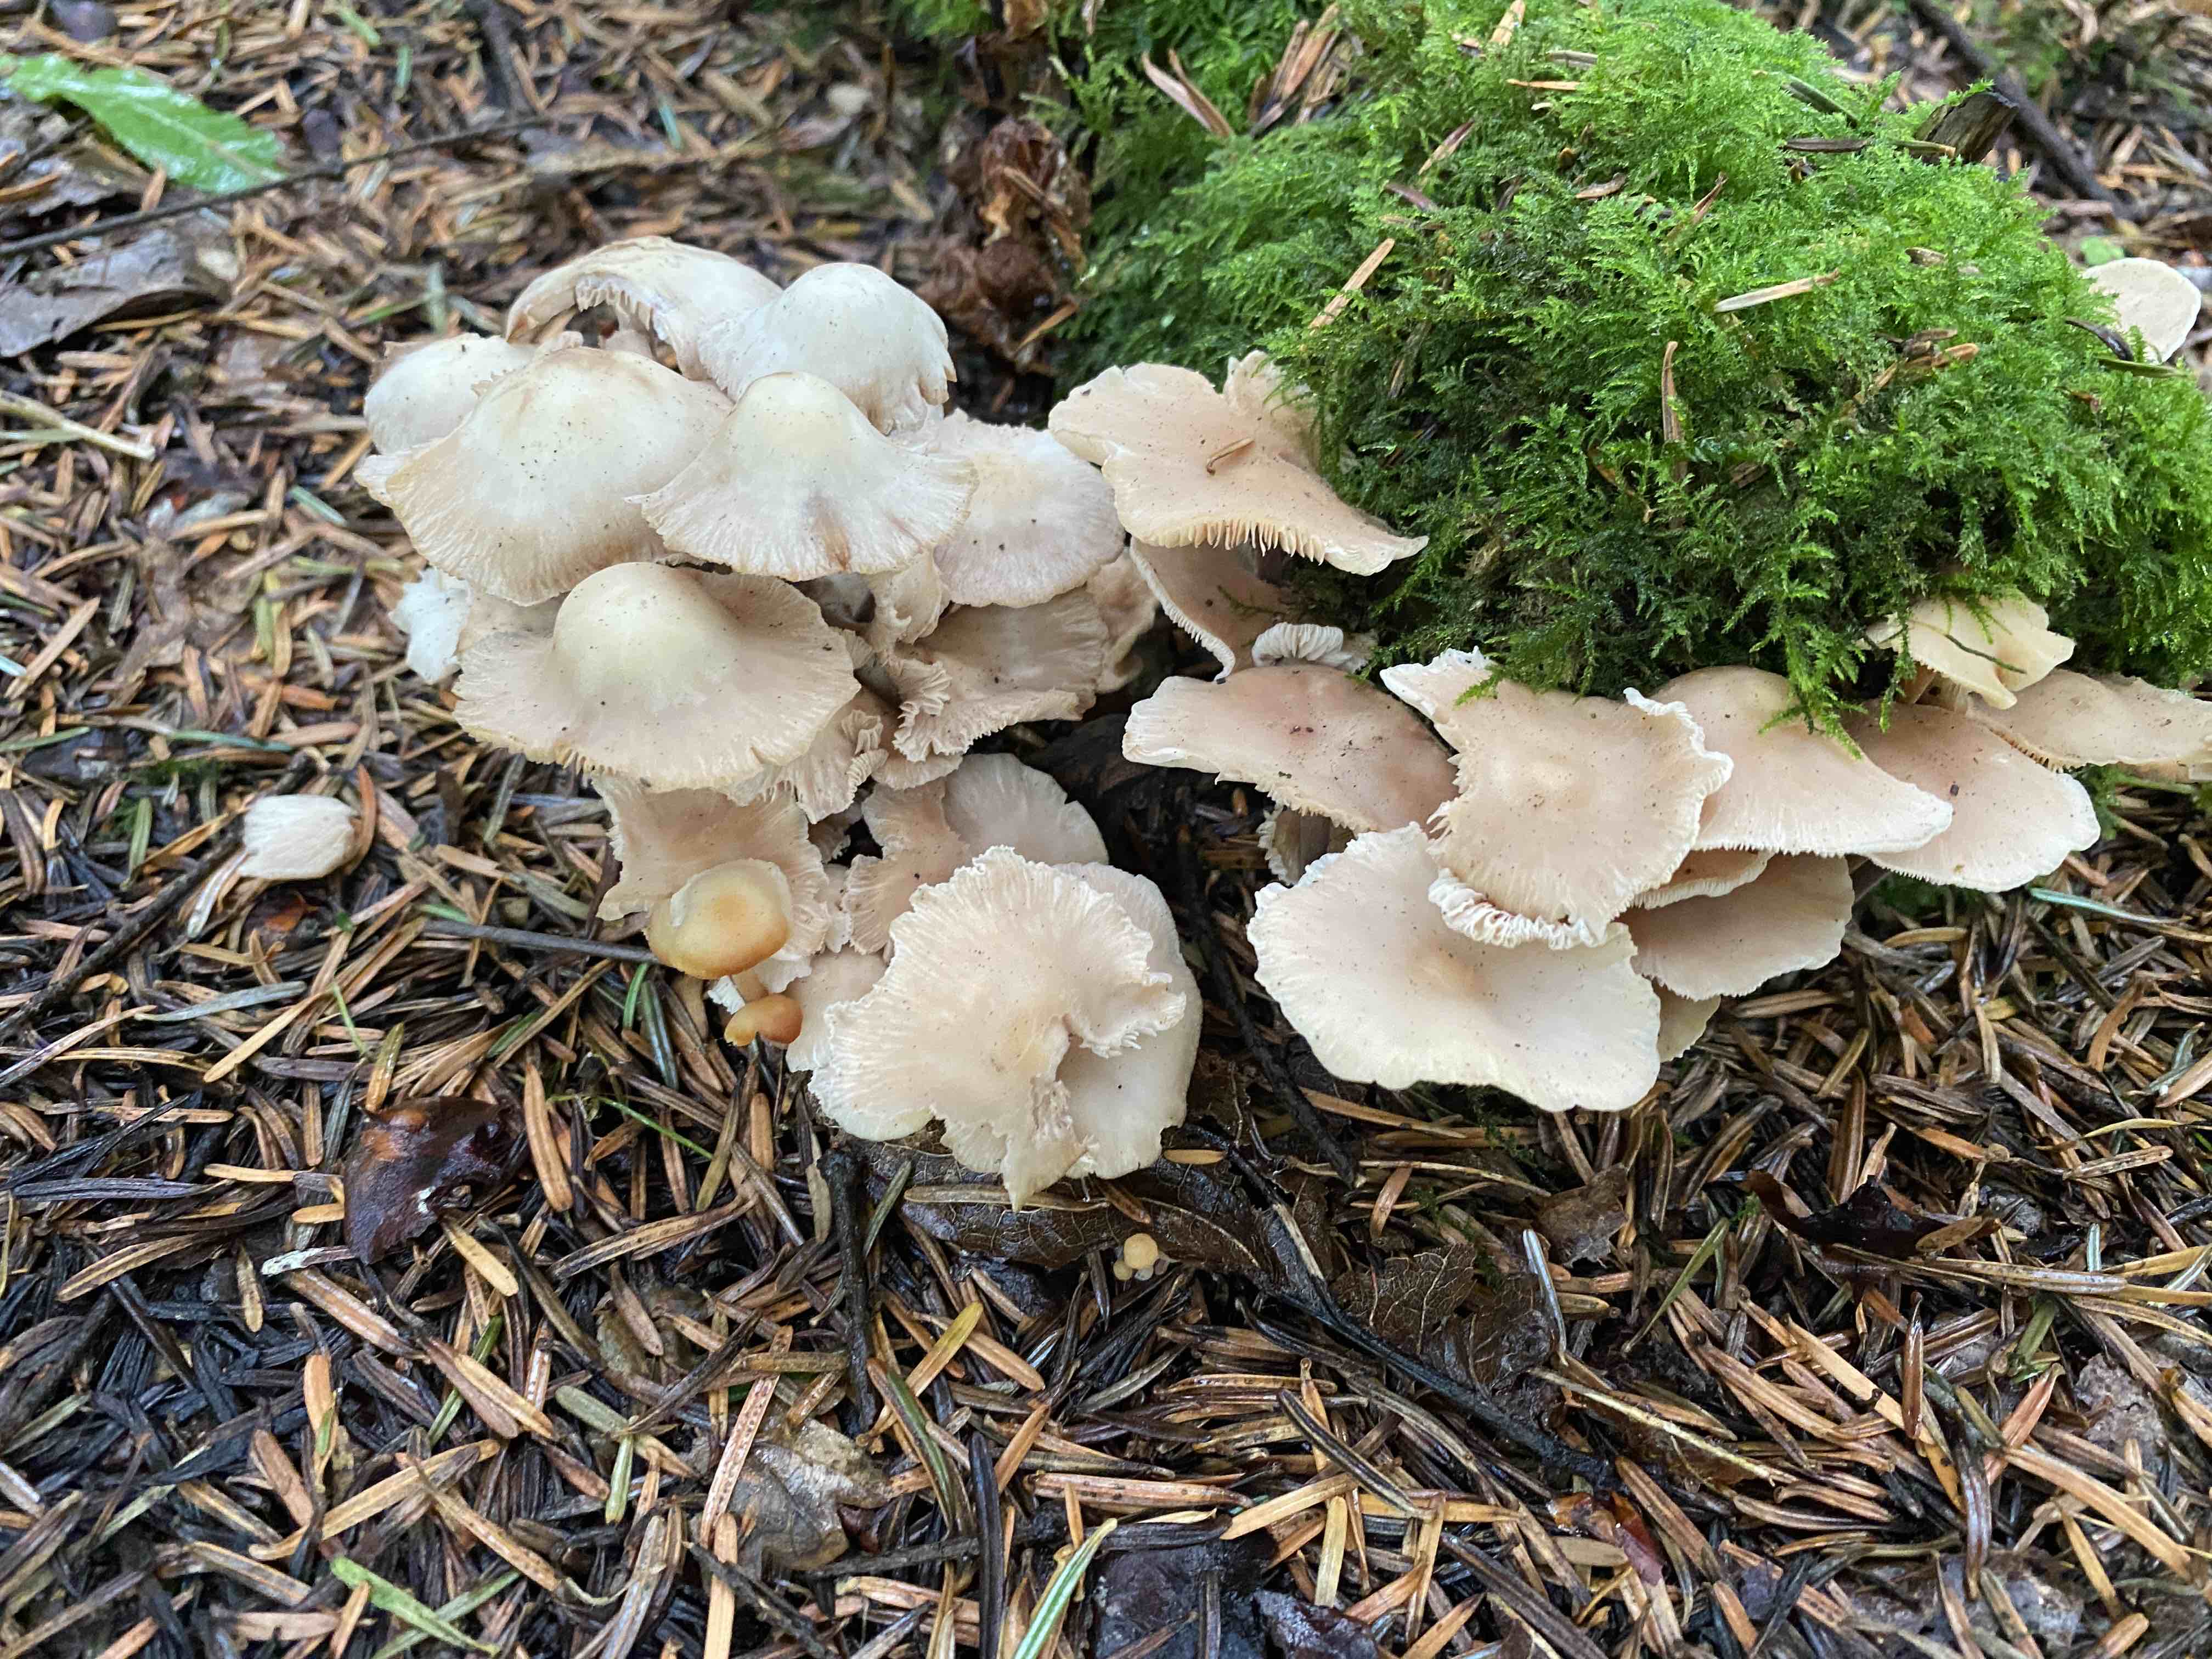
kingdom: Fungi
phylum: Basidiomycota
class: Agaricomycetes
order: Agaricales
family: Omphalotaceae
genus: Collybiopsis
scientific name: Collybiopsis confluens
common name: knippe-fladhat
